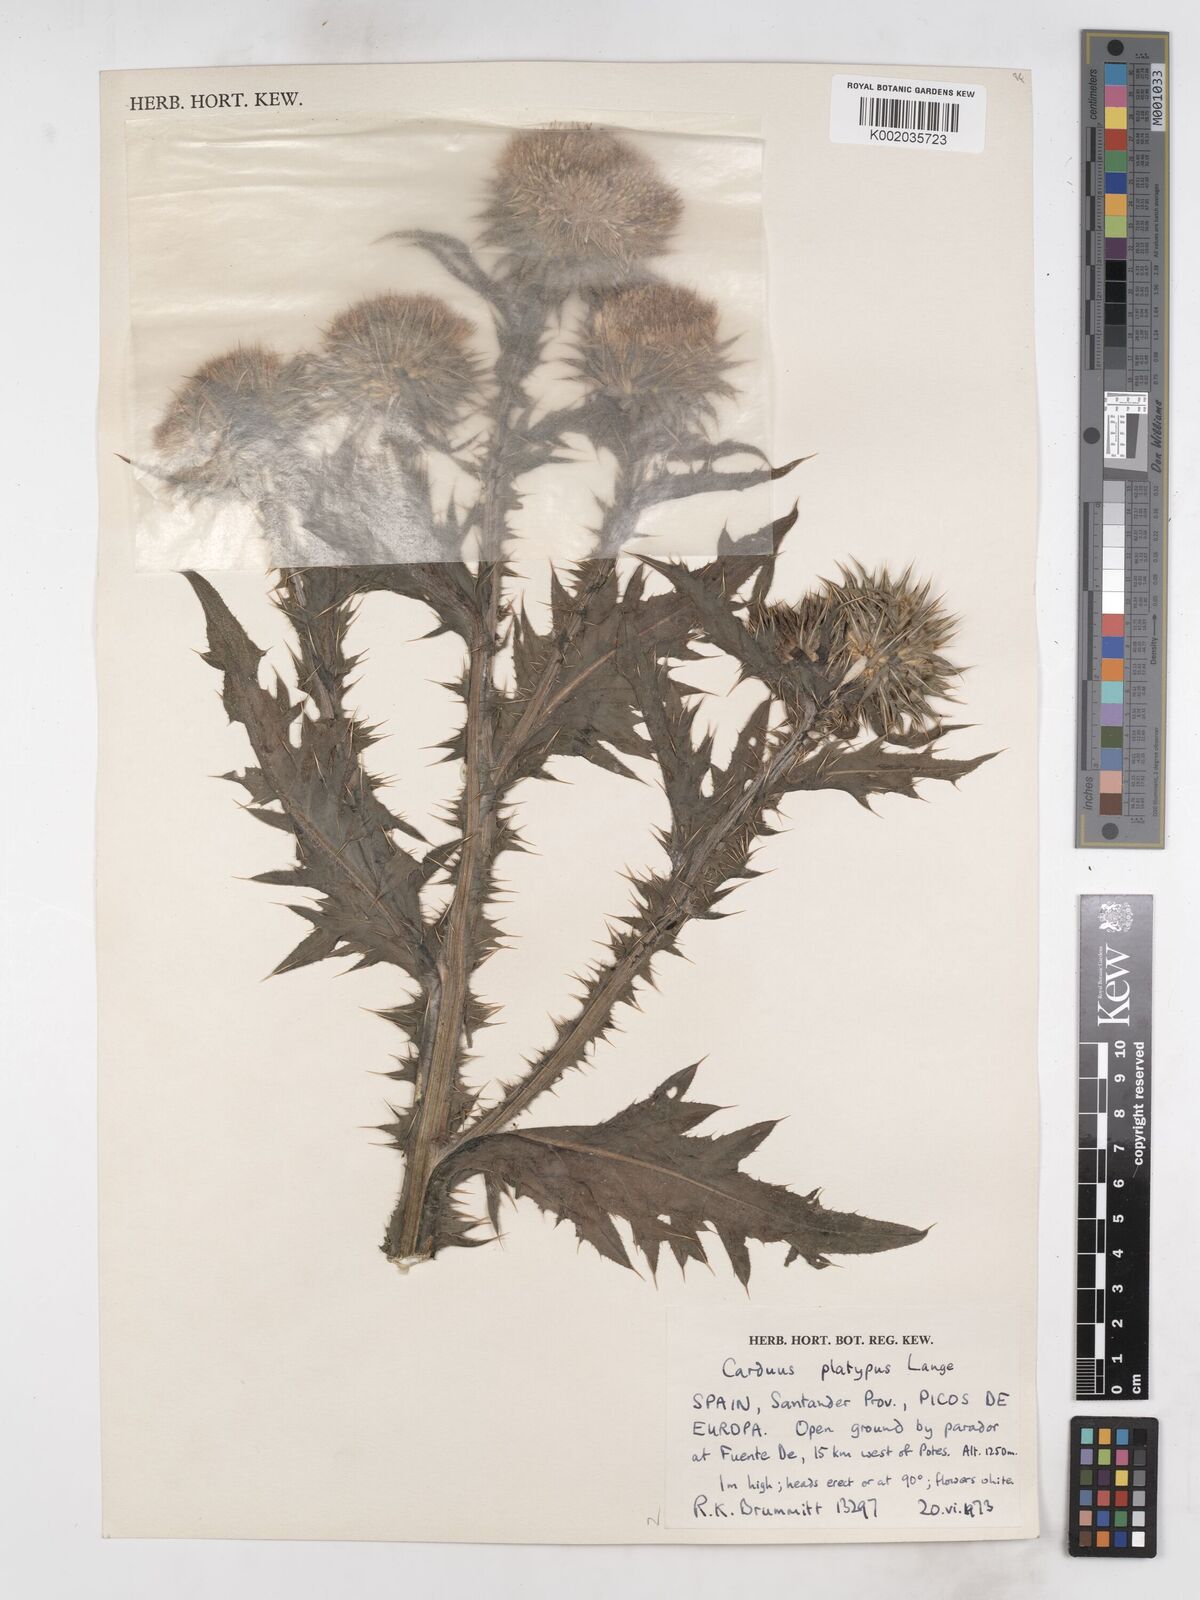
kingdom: Plantae
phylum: Tracheophyta
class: Magnoliopsida
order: Asterales
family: Asteraceae
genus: Carduus
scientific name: Carduus platypus
